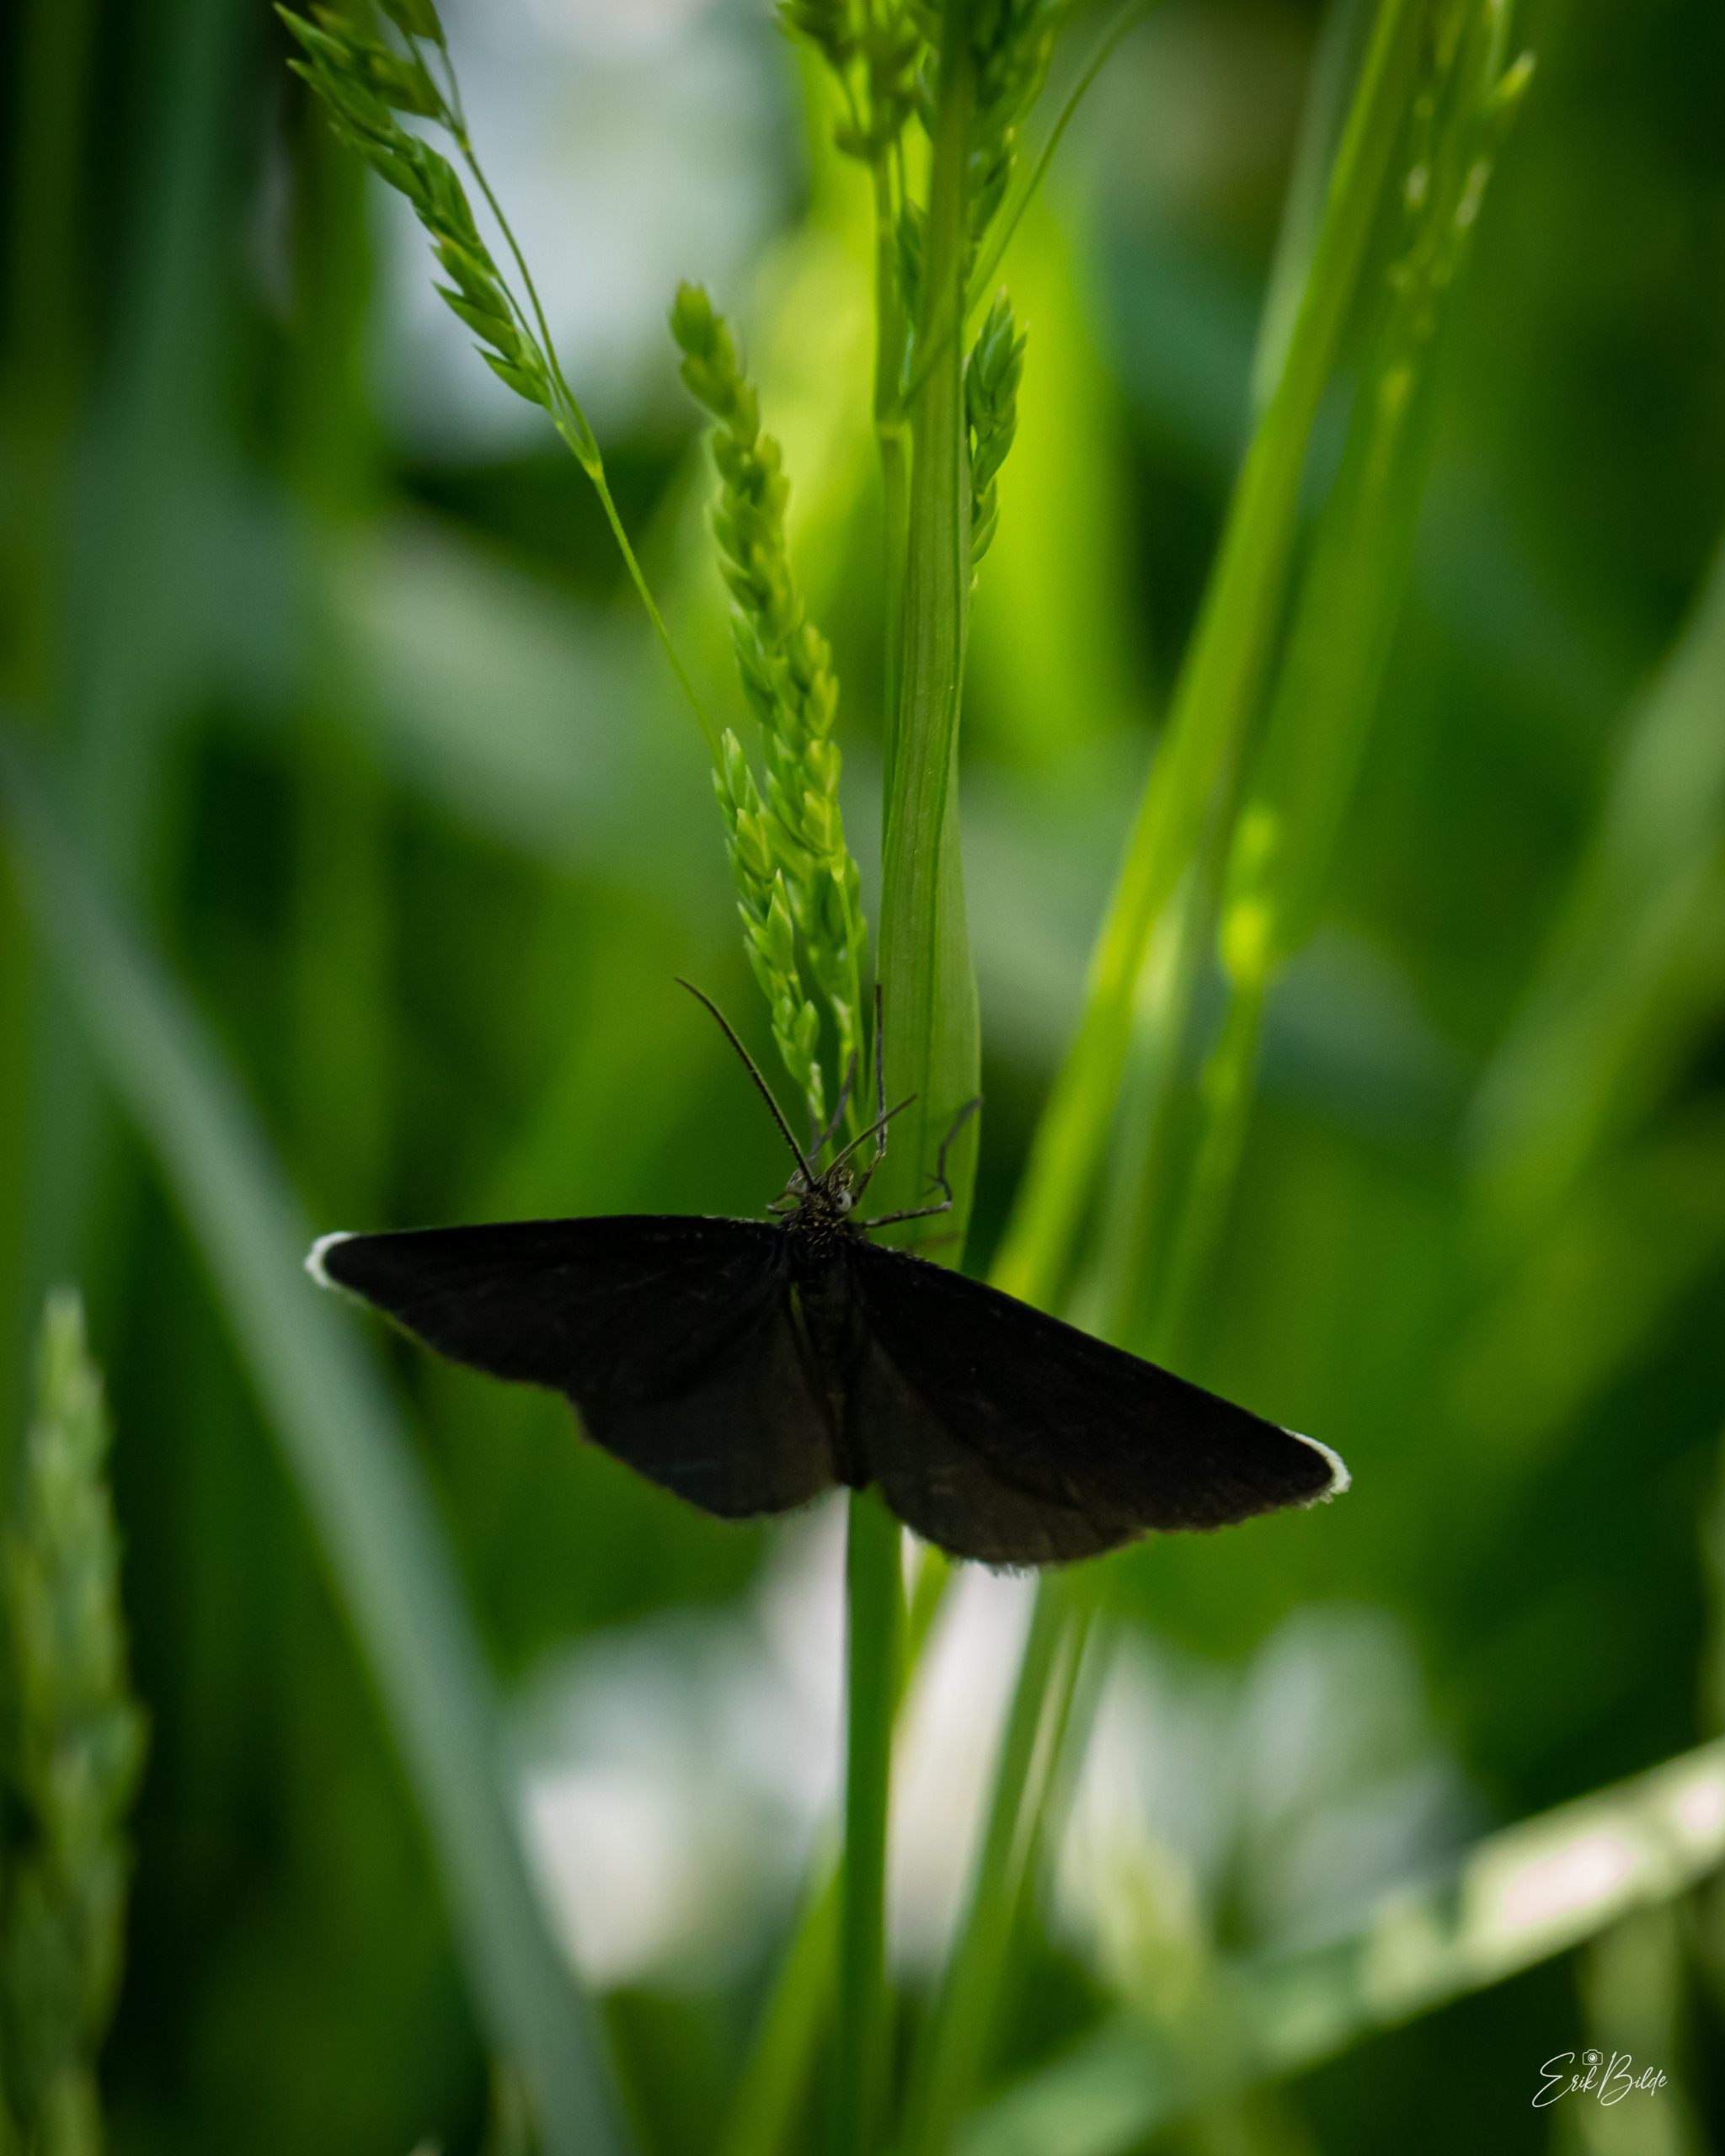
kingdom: Animalia
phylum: Arthropoda
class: Insecta
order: Lepidoptera
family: Geometridae
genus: Odezia
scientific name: Odezia atrata
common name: Sort måler
